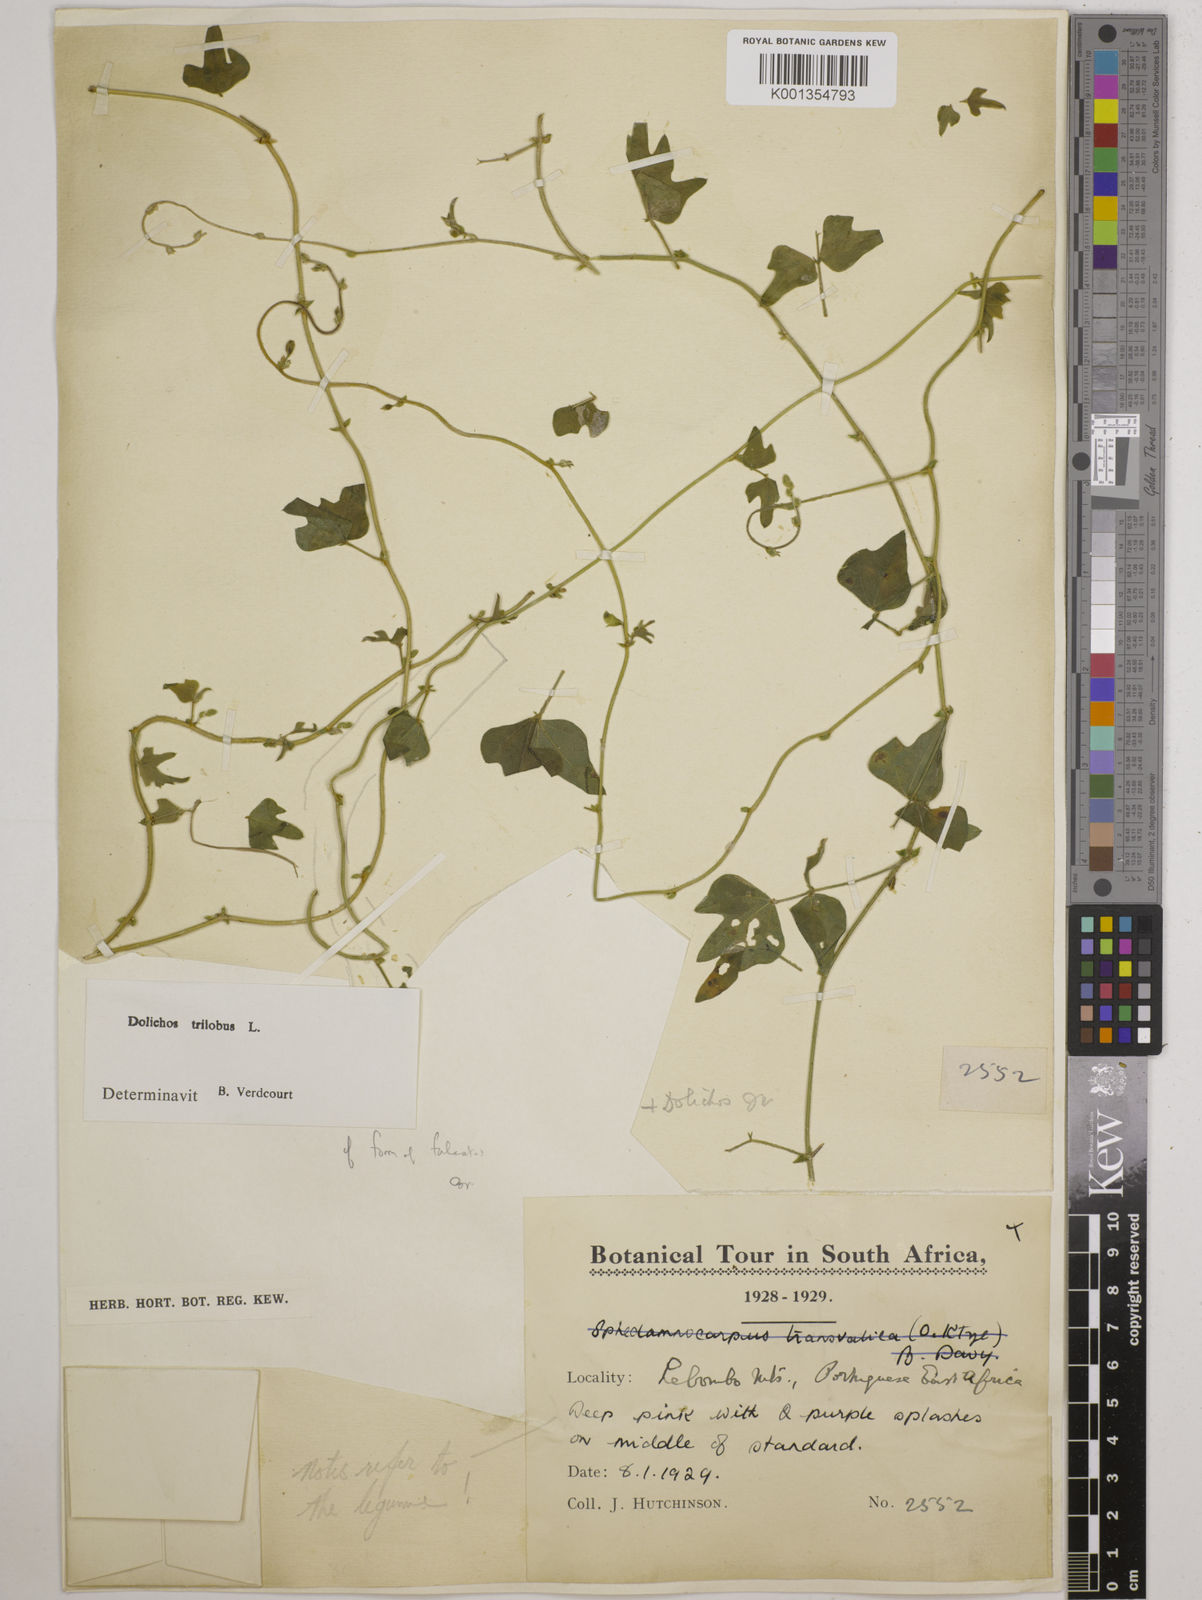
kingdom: Plantae
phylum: Tracheophyta
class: Magnoliopsida
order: Fabales
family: Fabaceae
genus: Dolichos
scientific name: Dolichos
